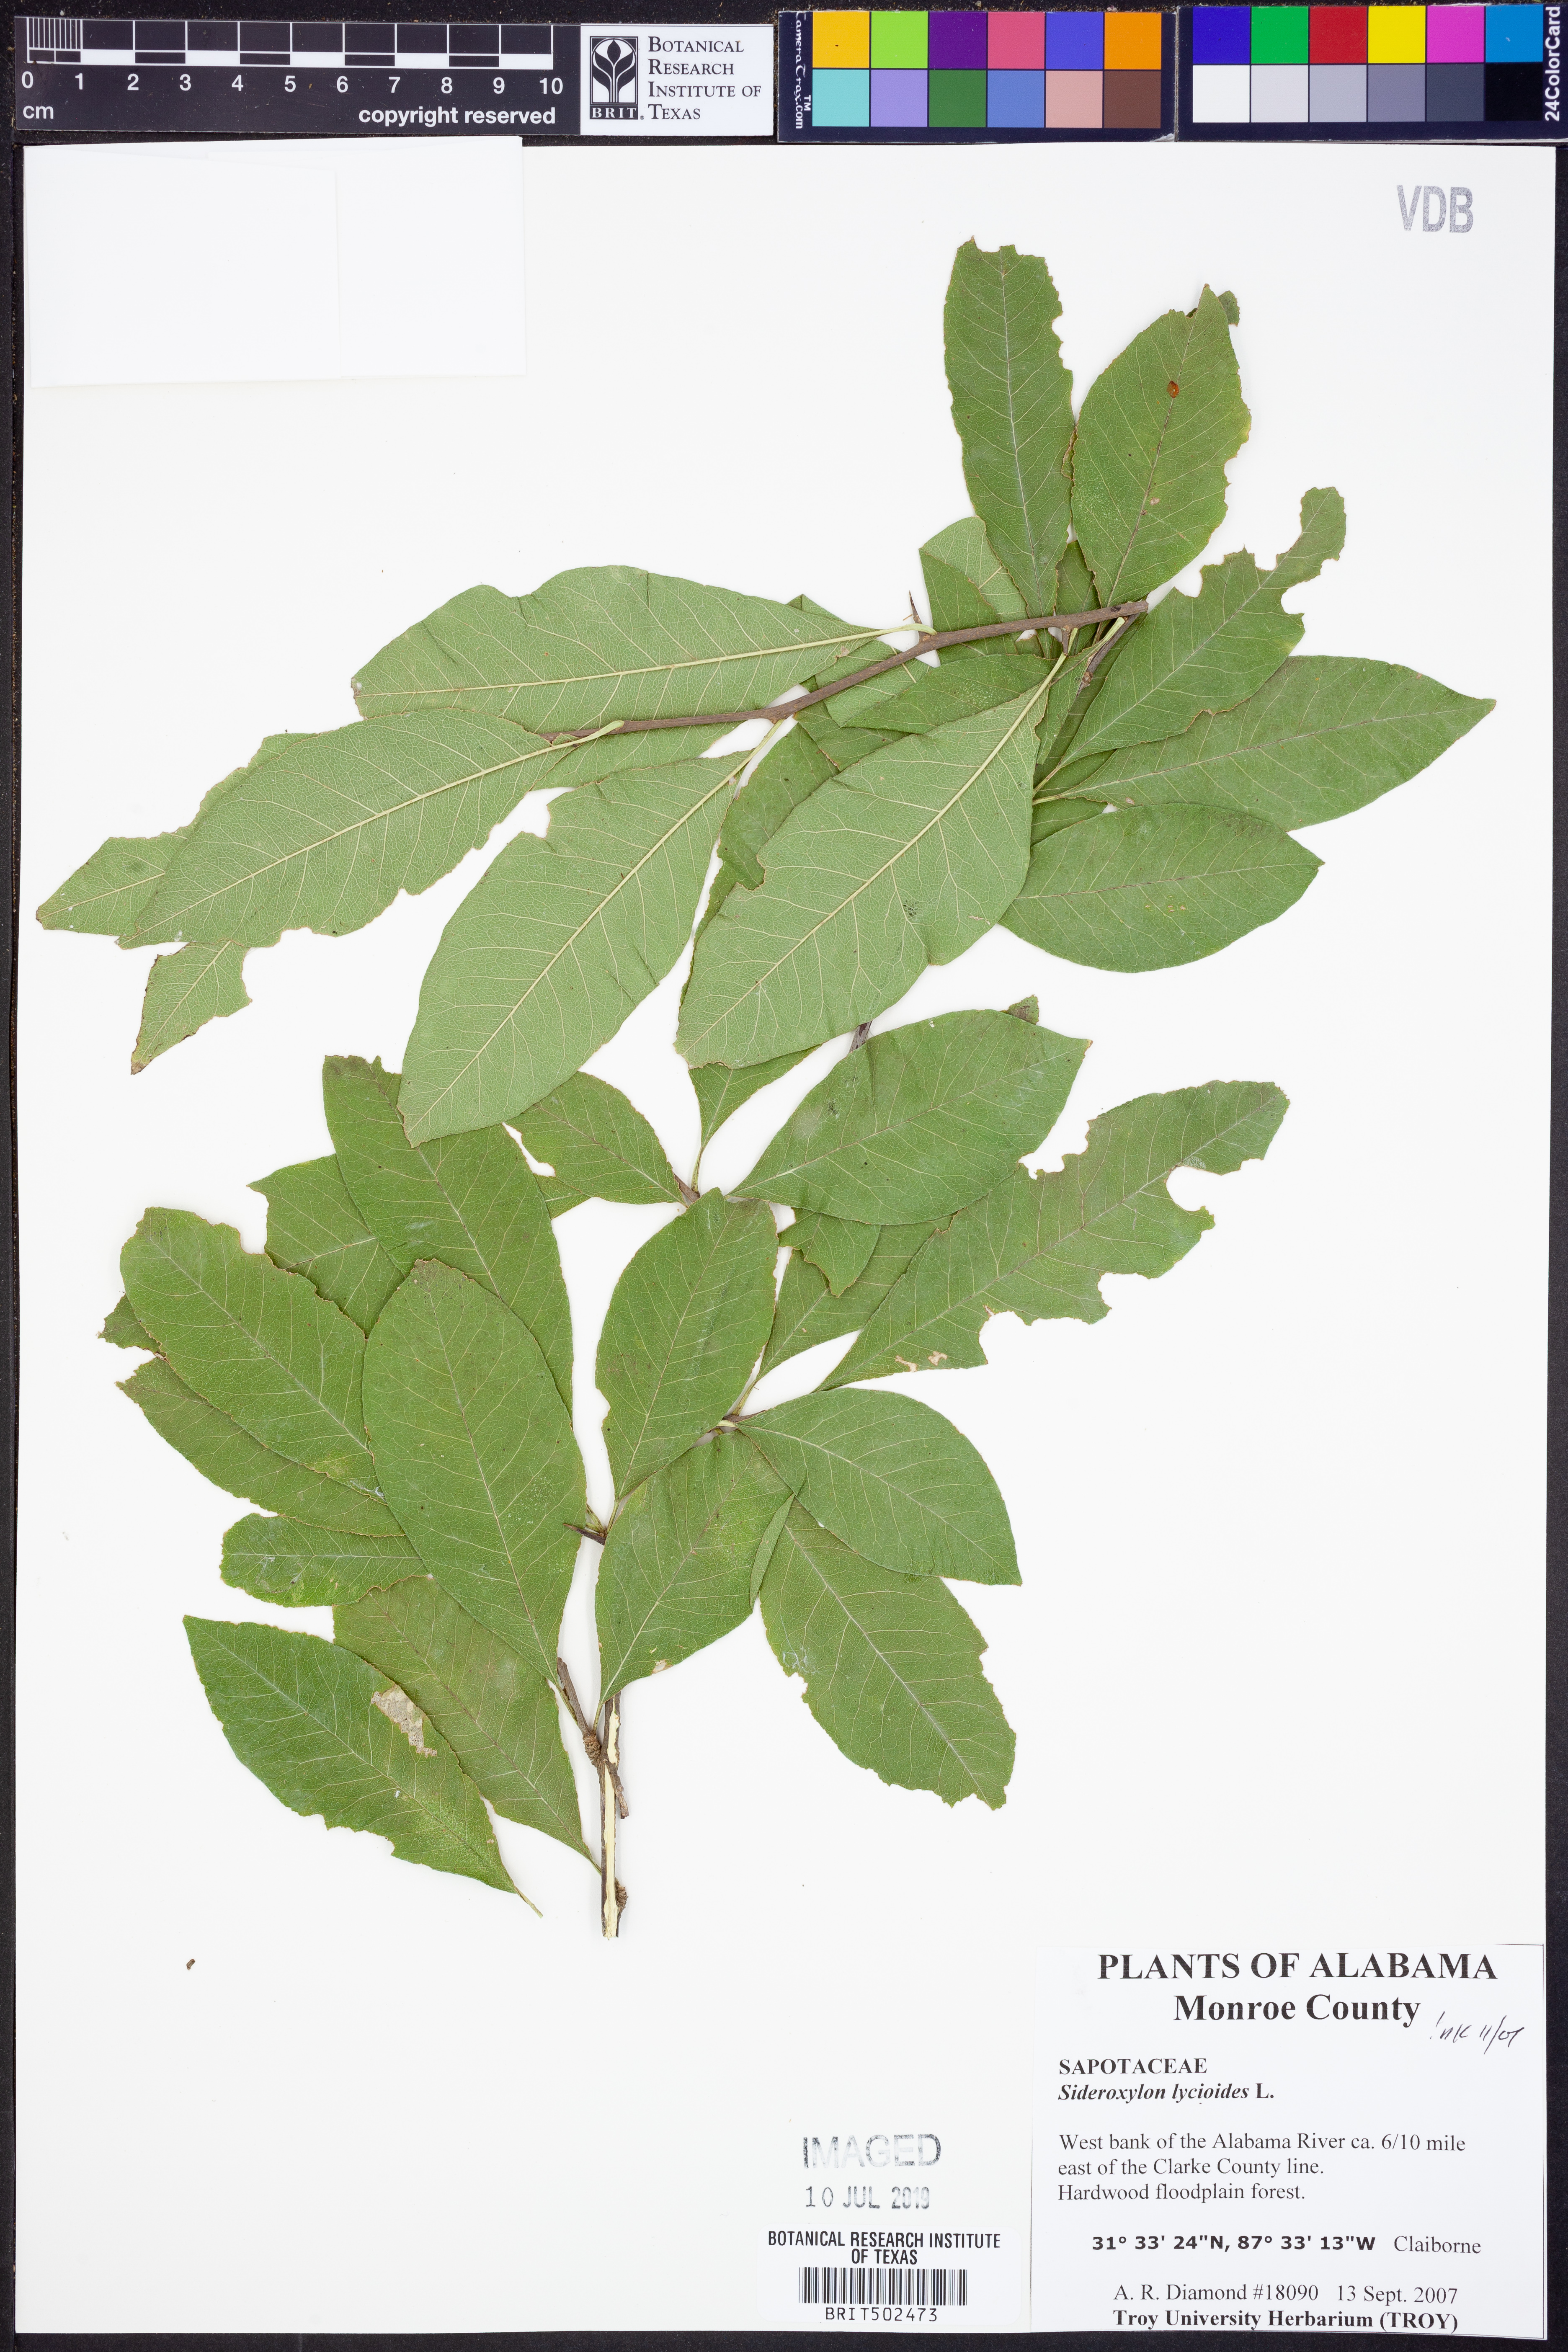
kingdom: Plantae
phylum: Tracheophyta
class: Magnoliopsida
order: Ericales
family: Sapotaceae
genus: Sideroxylon
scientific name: Sideroxylon lycioides
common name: Buckthorn bumelia
